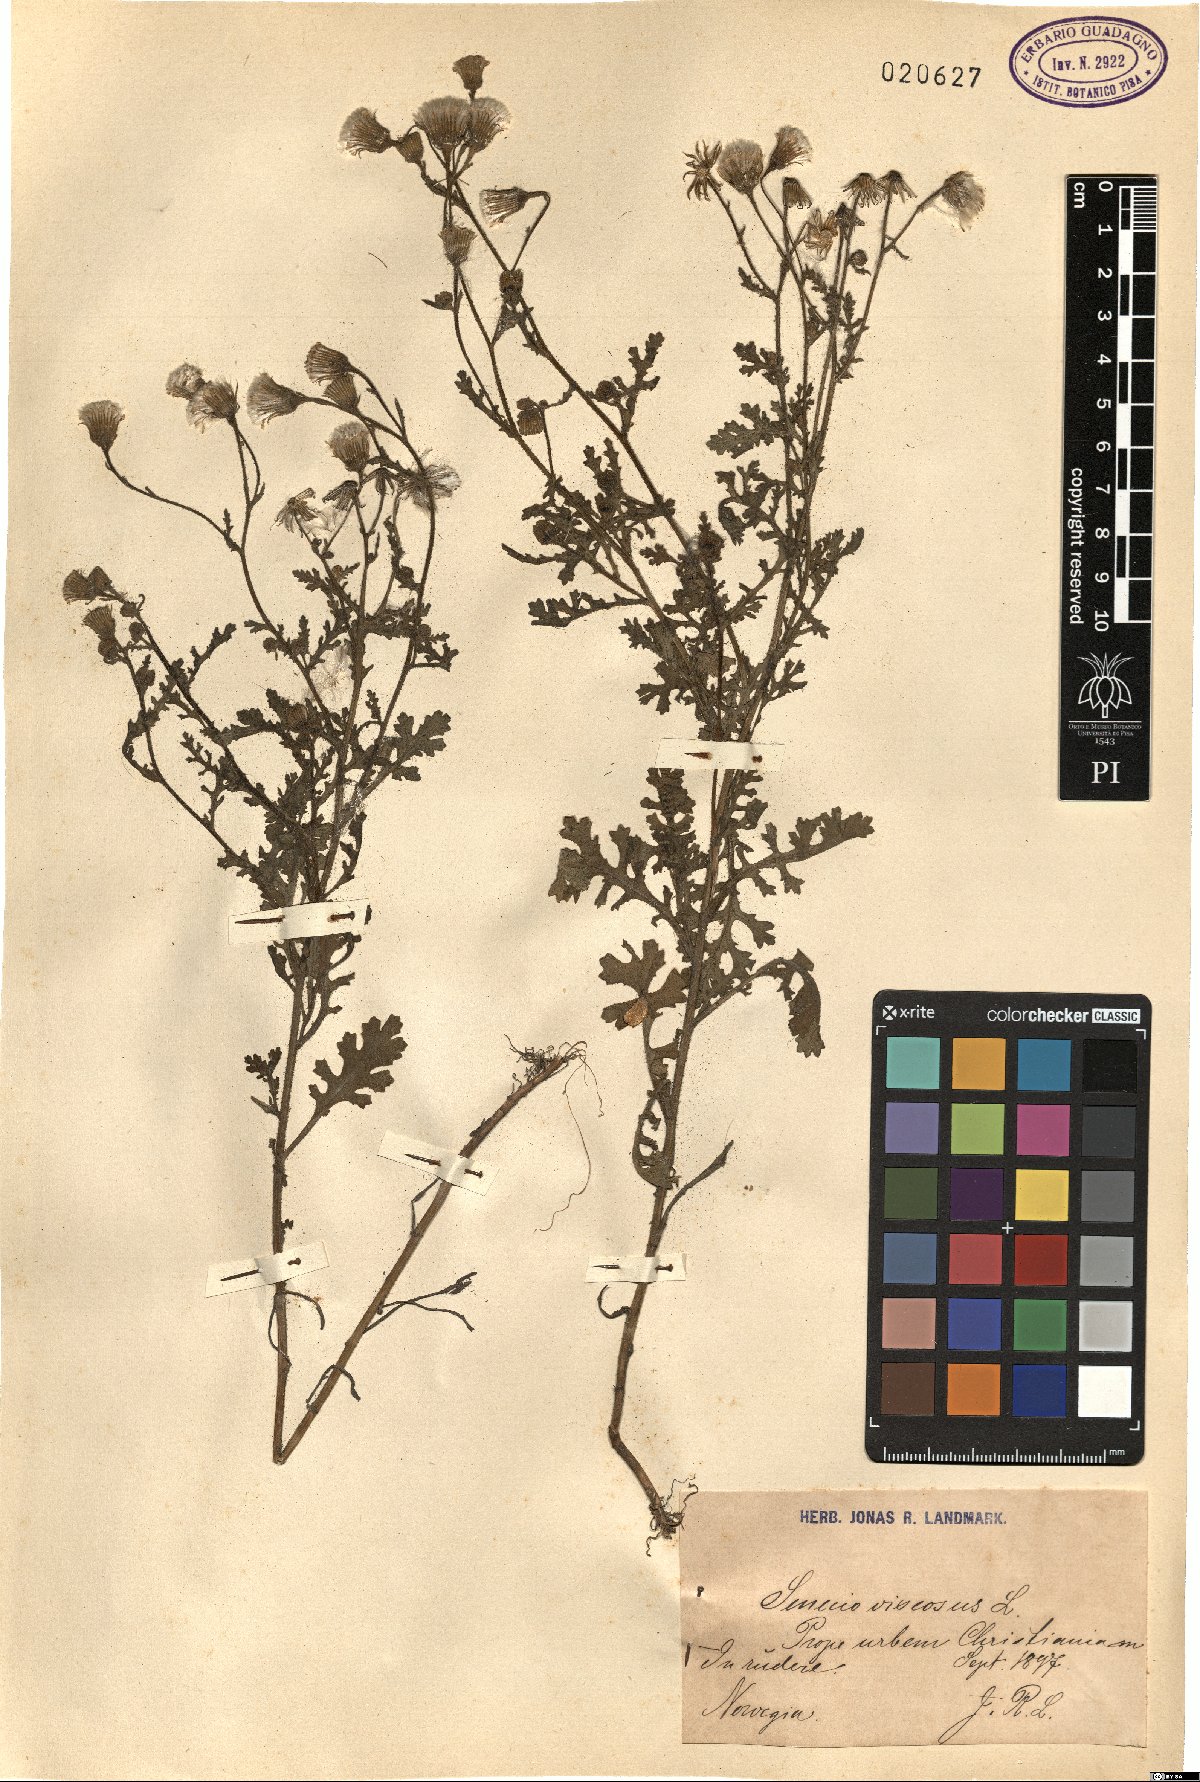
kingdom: Plantae
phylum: Tracheophyta
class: Magnoliopsida
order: Asterales
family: Asteraceae
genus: Senecio
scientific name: Senecio viscosus
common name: Sticky groundsel
